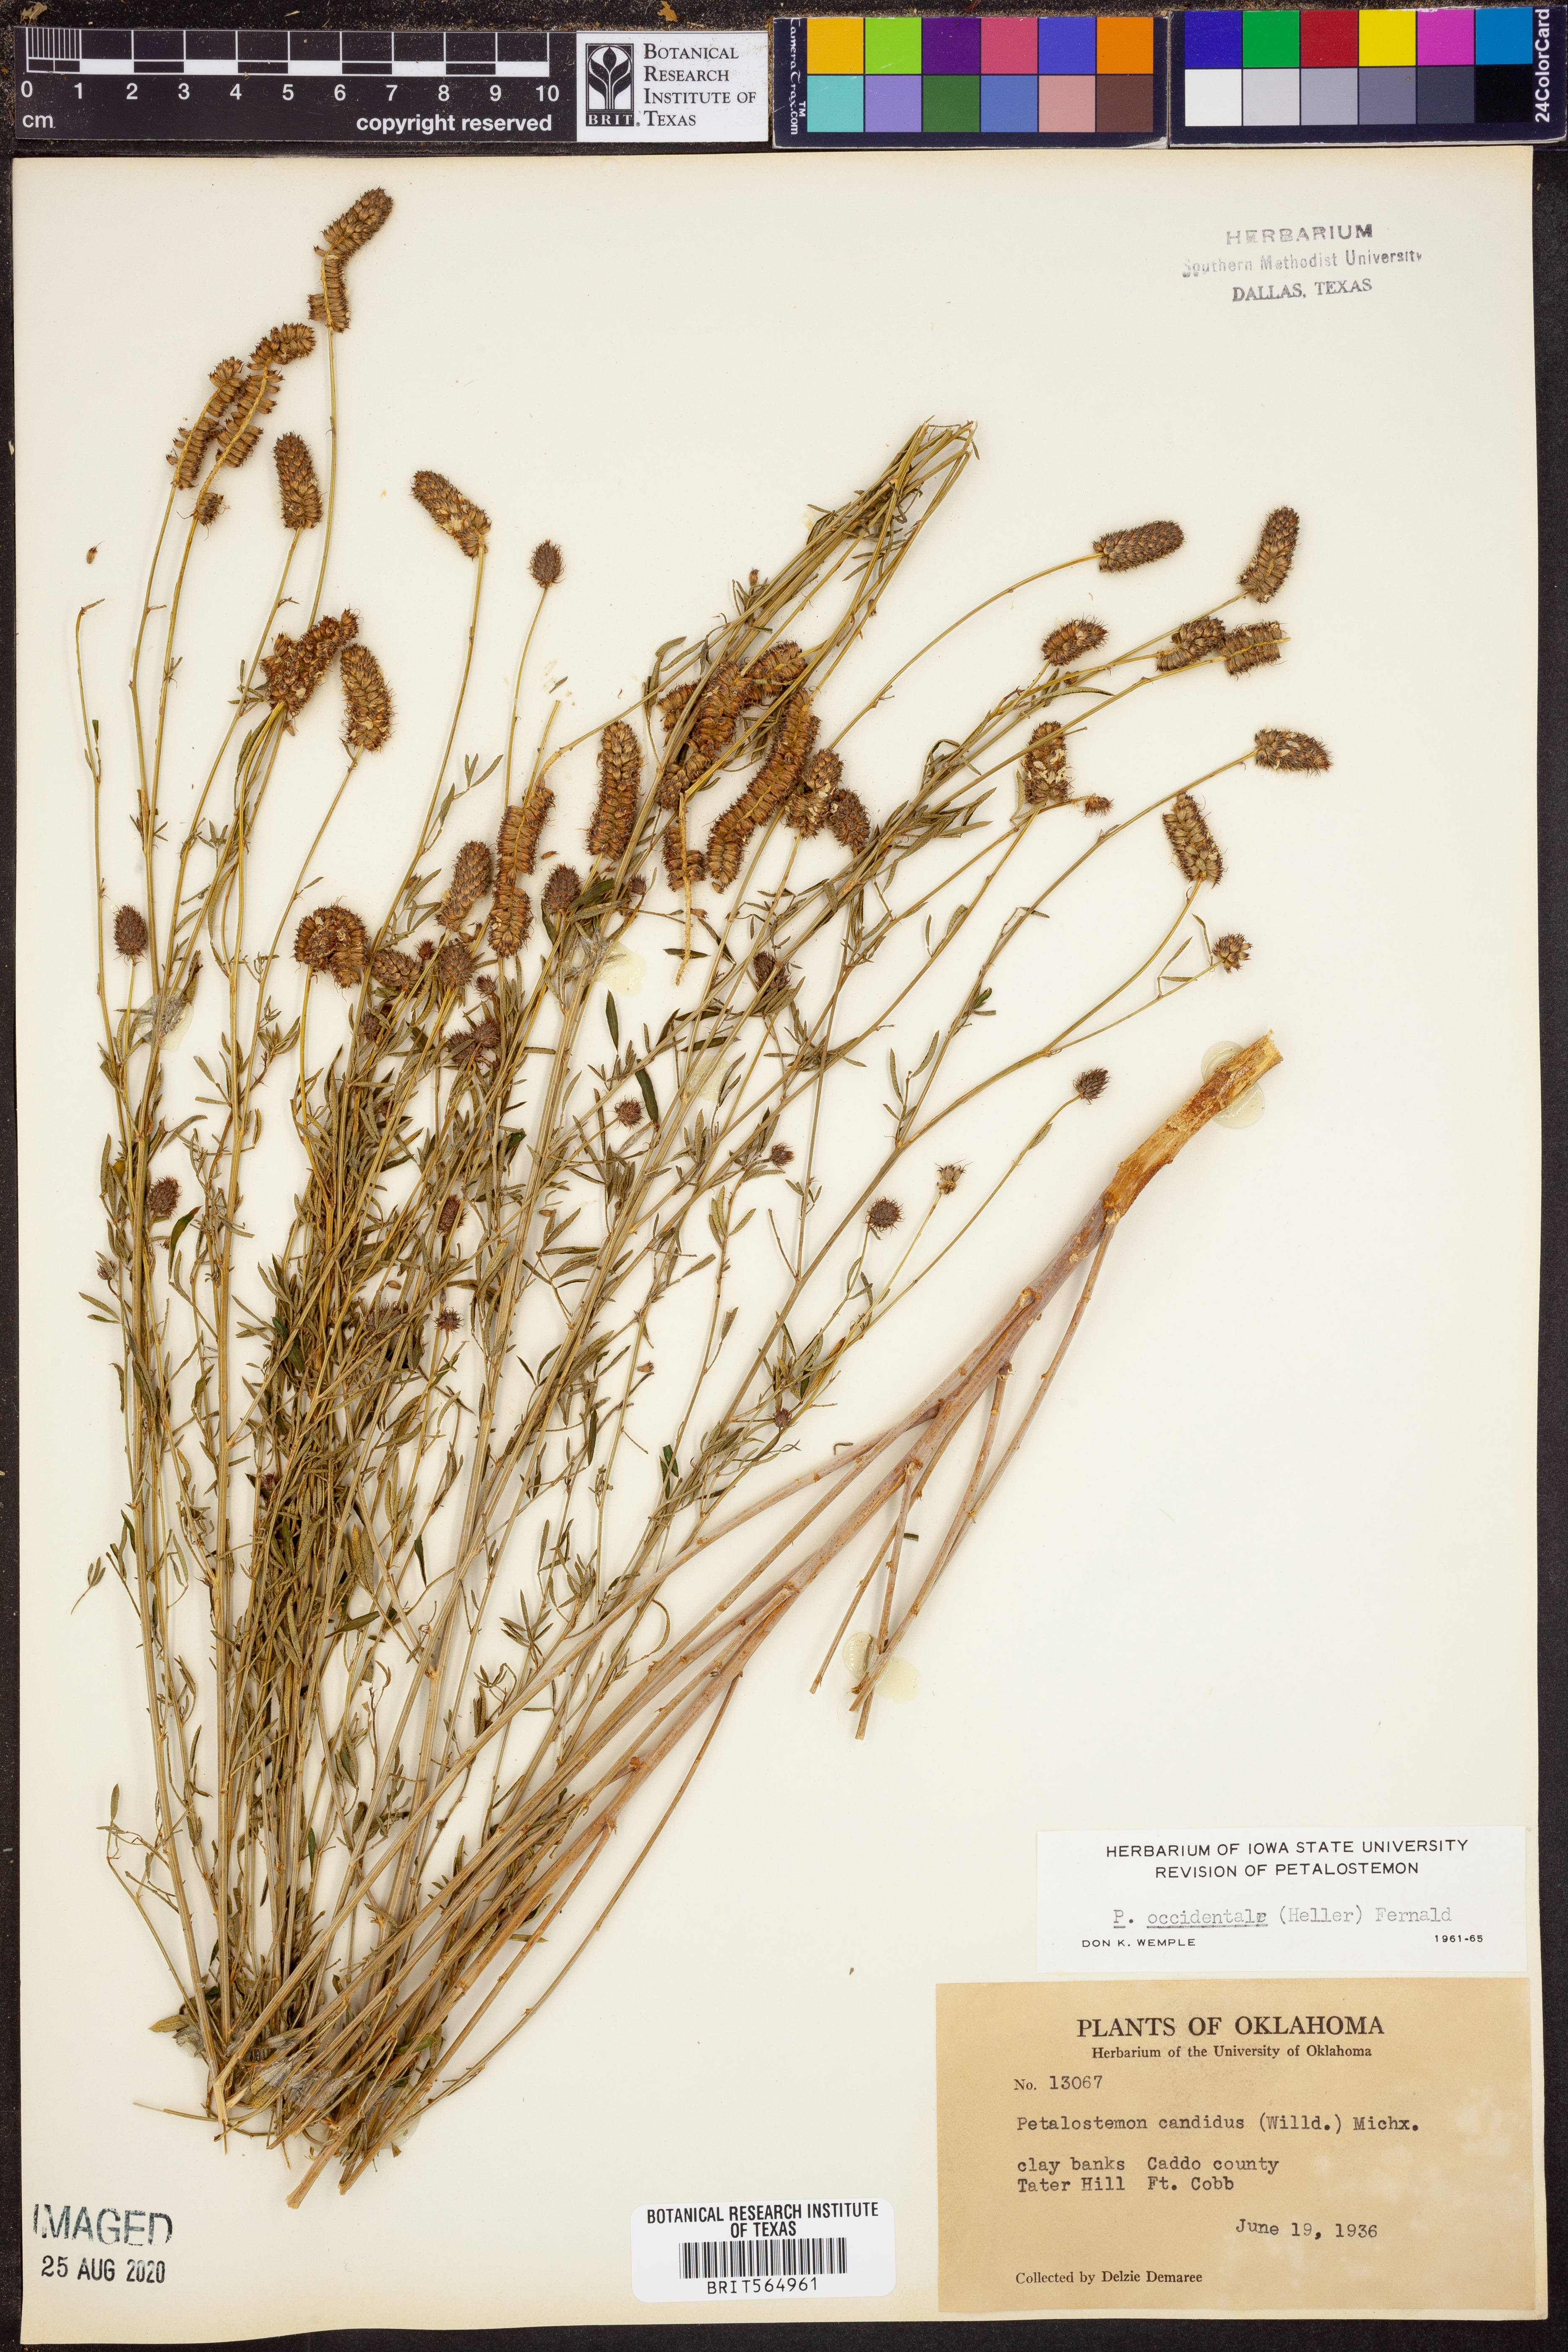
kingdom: Plantae
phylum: Tracheophyta
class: Magnoliopsida
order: Fabales
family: Fabaceae
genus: Dalea
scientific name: Dalea candida
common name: White prairie-clover
